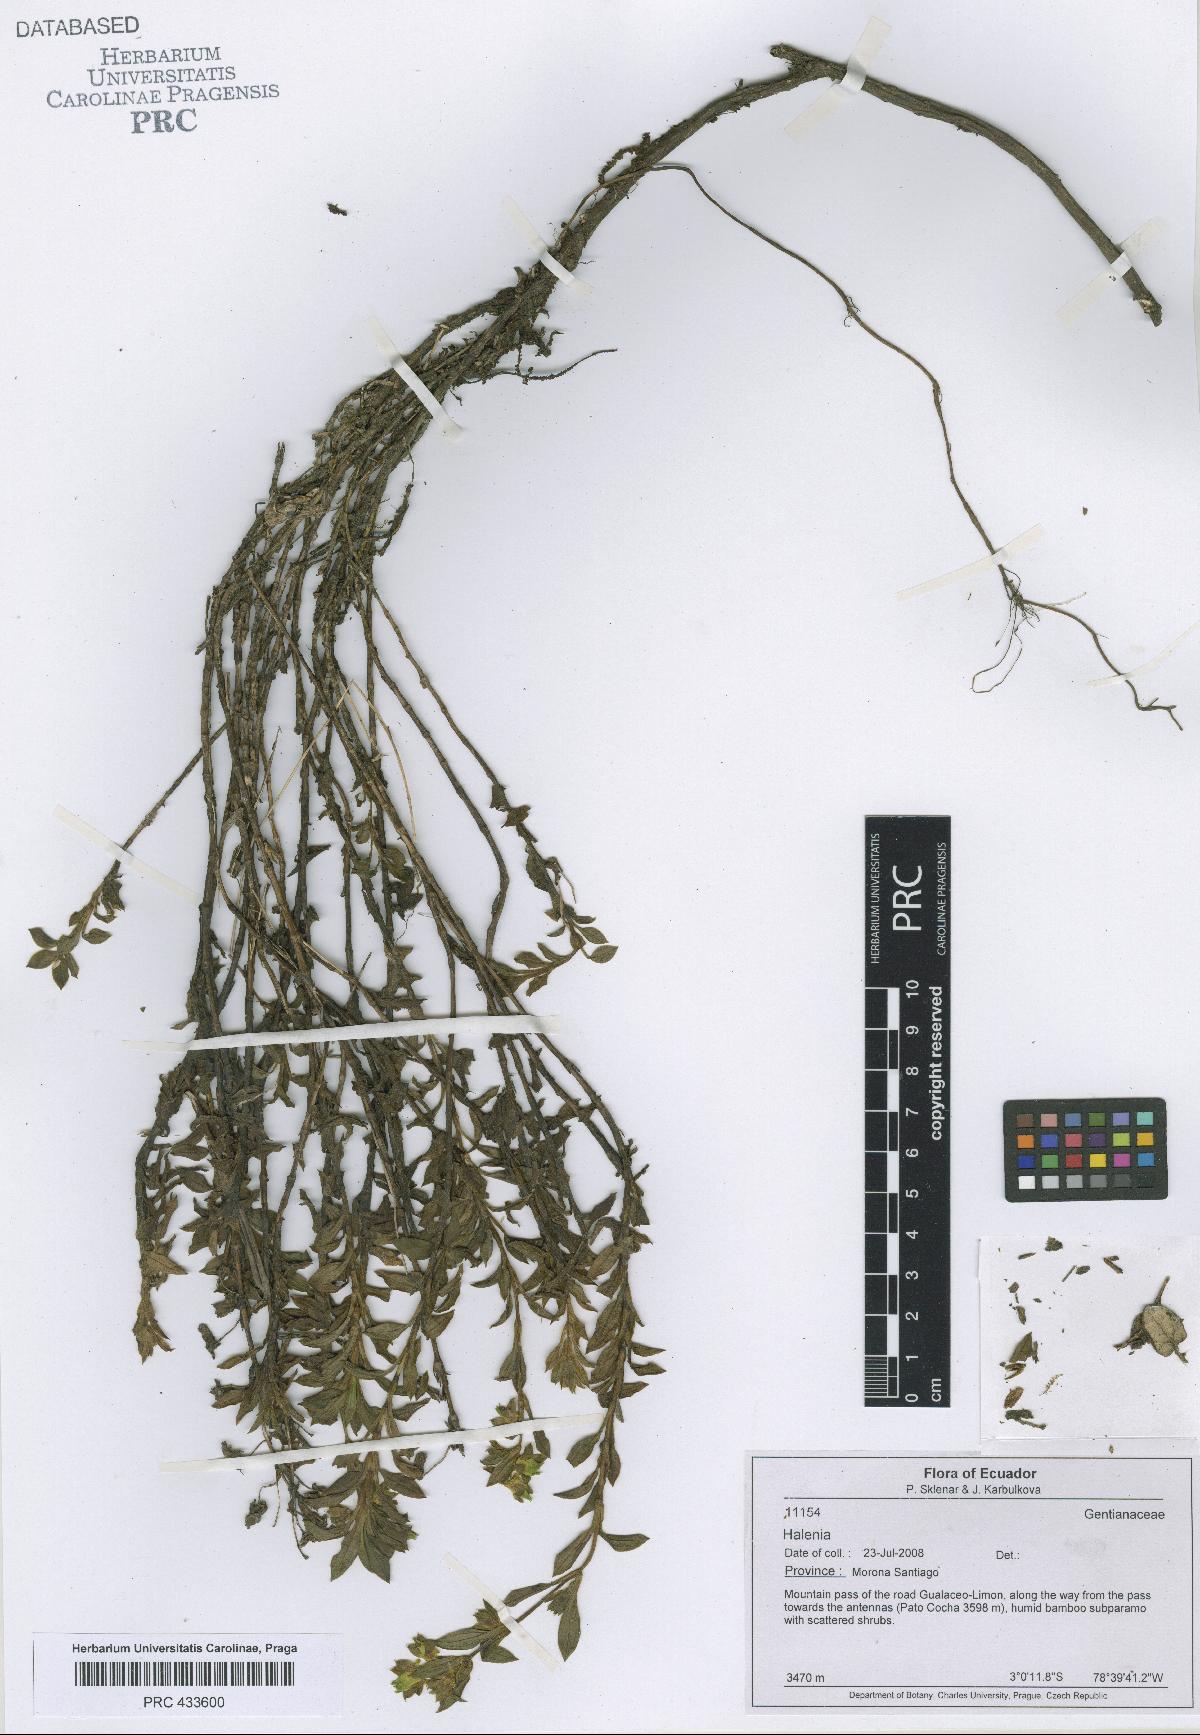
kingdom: Plantae
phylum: Tracheophyta
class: Magnoliopsida
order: Gentianales
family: Gentianaceae
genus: Halenia
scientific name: Halenia
